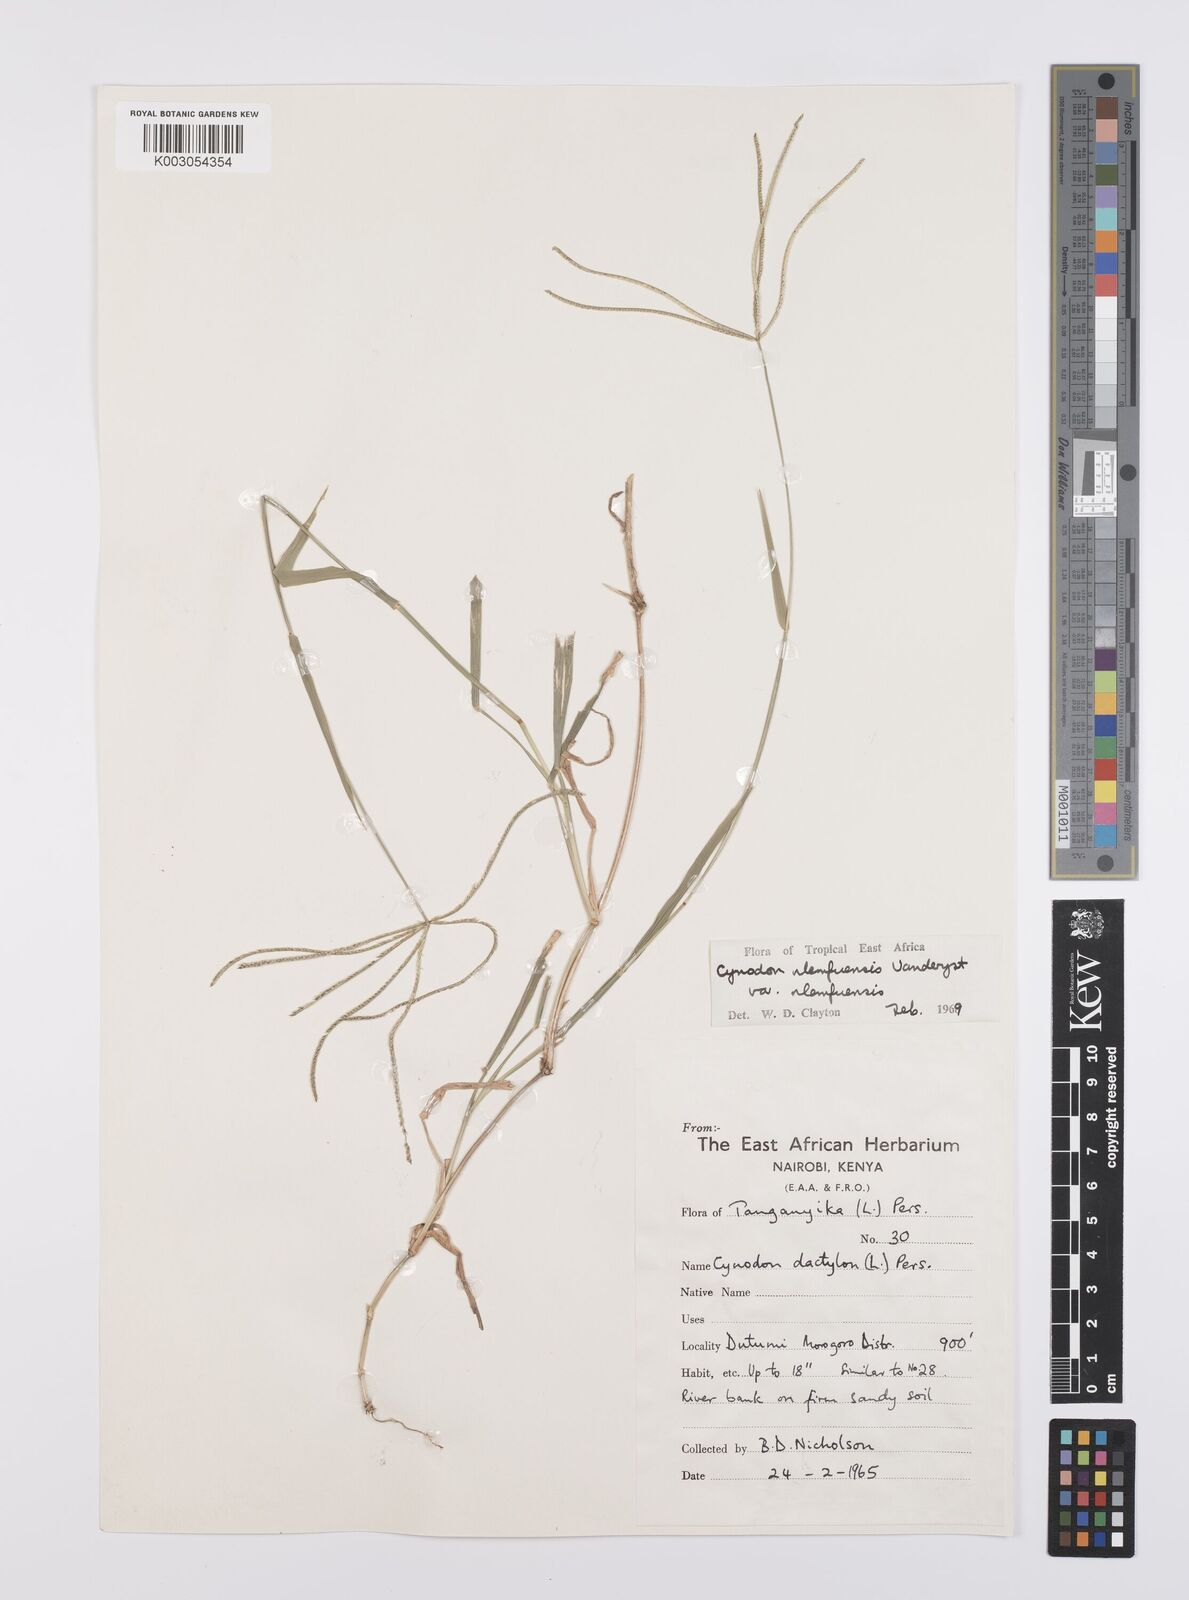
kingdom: Plantae
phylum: Tracheophyta
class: Liliopsida
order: Poales
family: Poaceae
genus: Cynodon
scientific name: Cynodon nlemfuensis
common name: African bermudagrass
